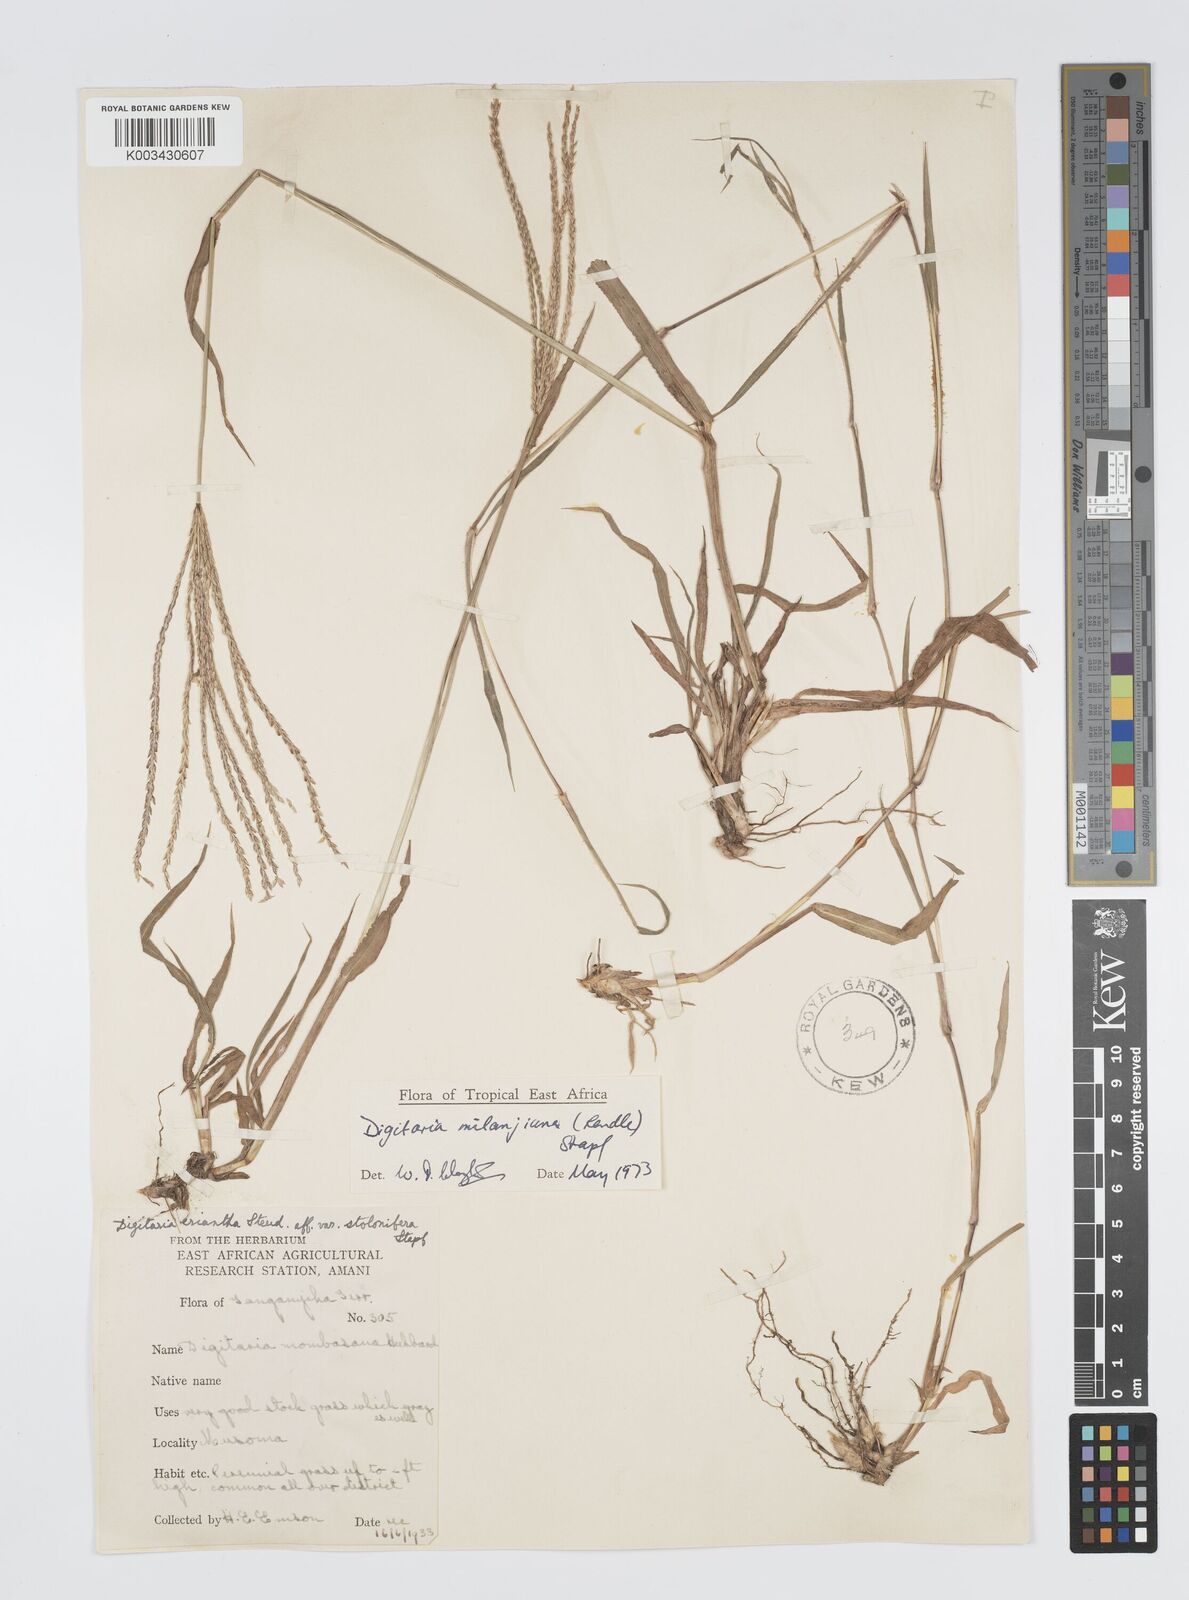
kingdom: Plantae
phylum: Tracheophyta
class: Liliopsida
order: Poales
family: Poaceae
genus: Digitaria
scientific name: Digitaria milanjiana
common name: Madagascar crabgrass
